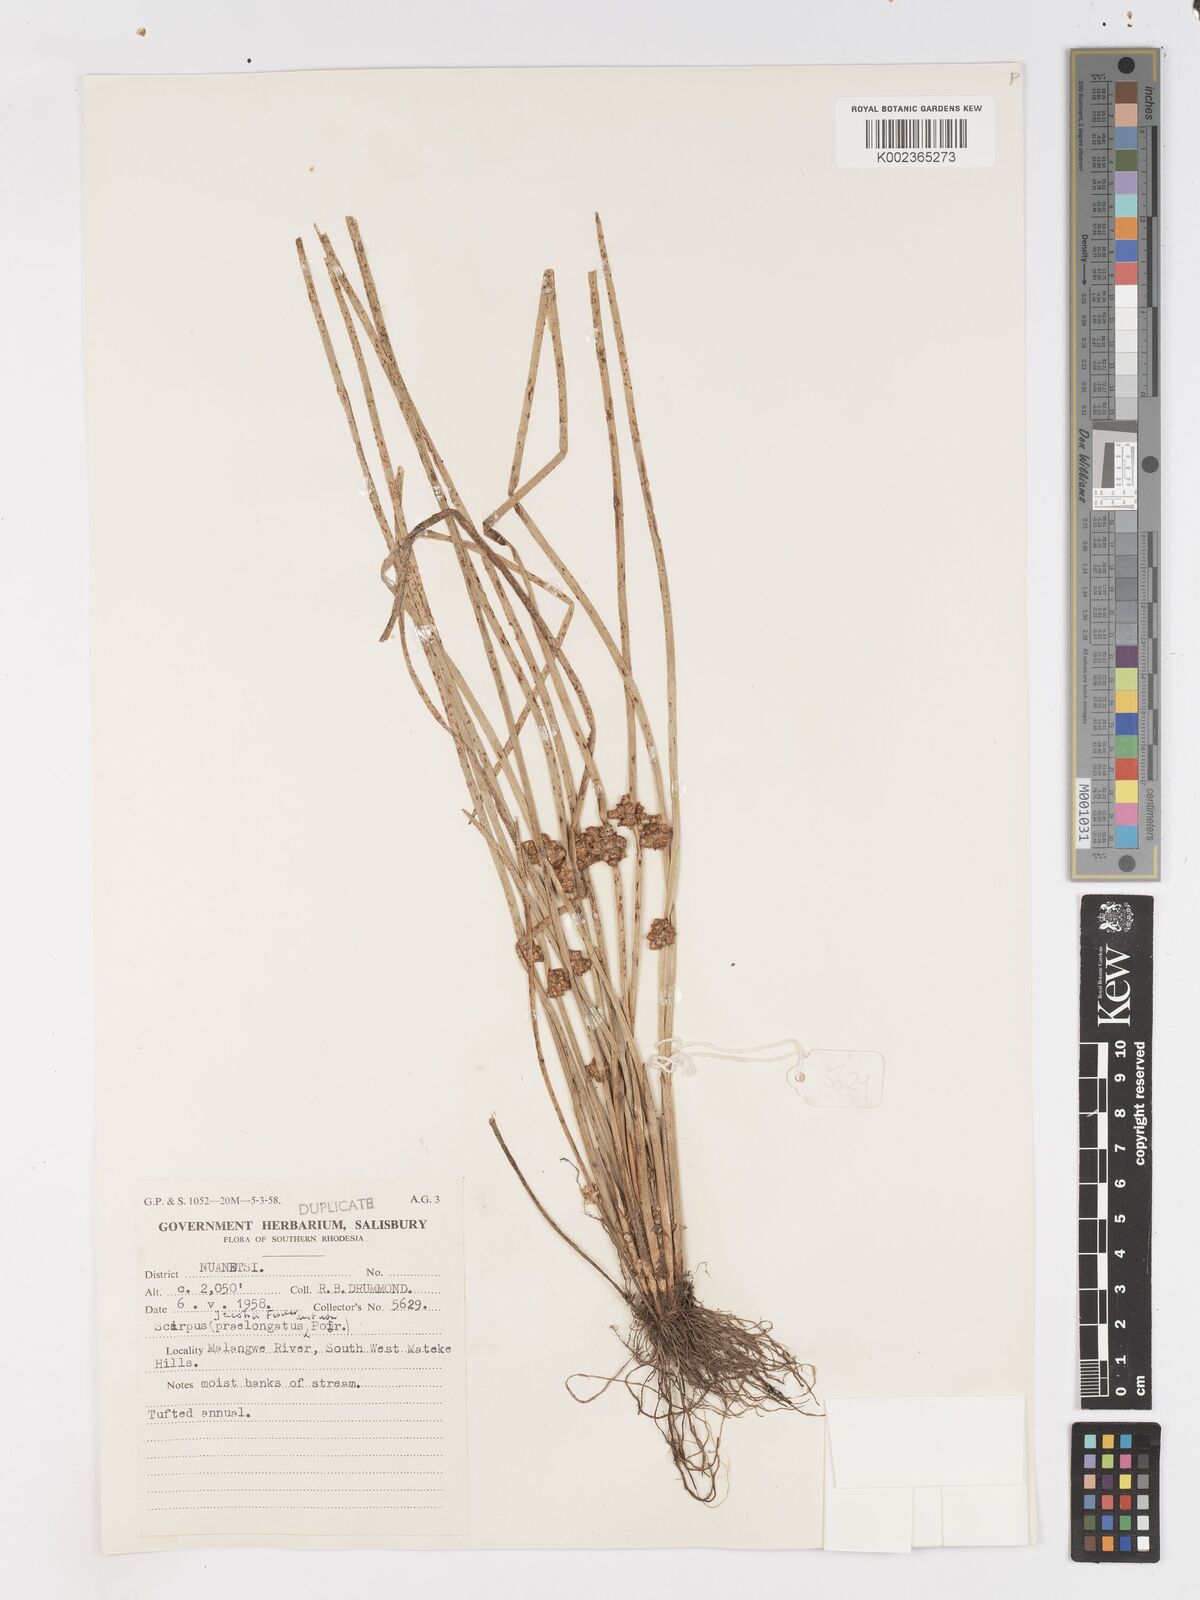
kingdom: Plantae
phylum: Tracheophyta
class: Liliopsida
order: Poales
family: Cyperaceae
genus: Schoenoplectiella
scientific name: Schoenoplectiella senegalensis
